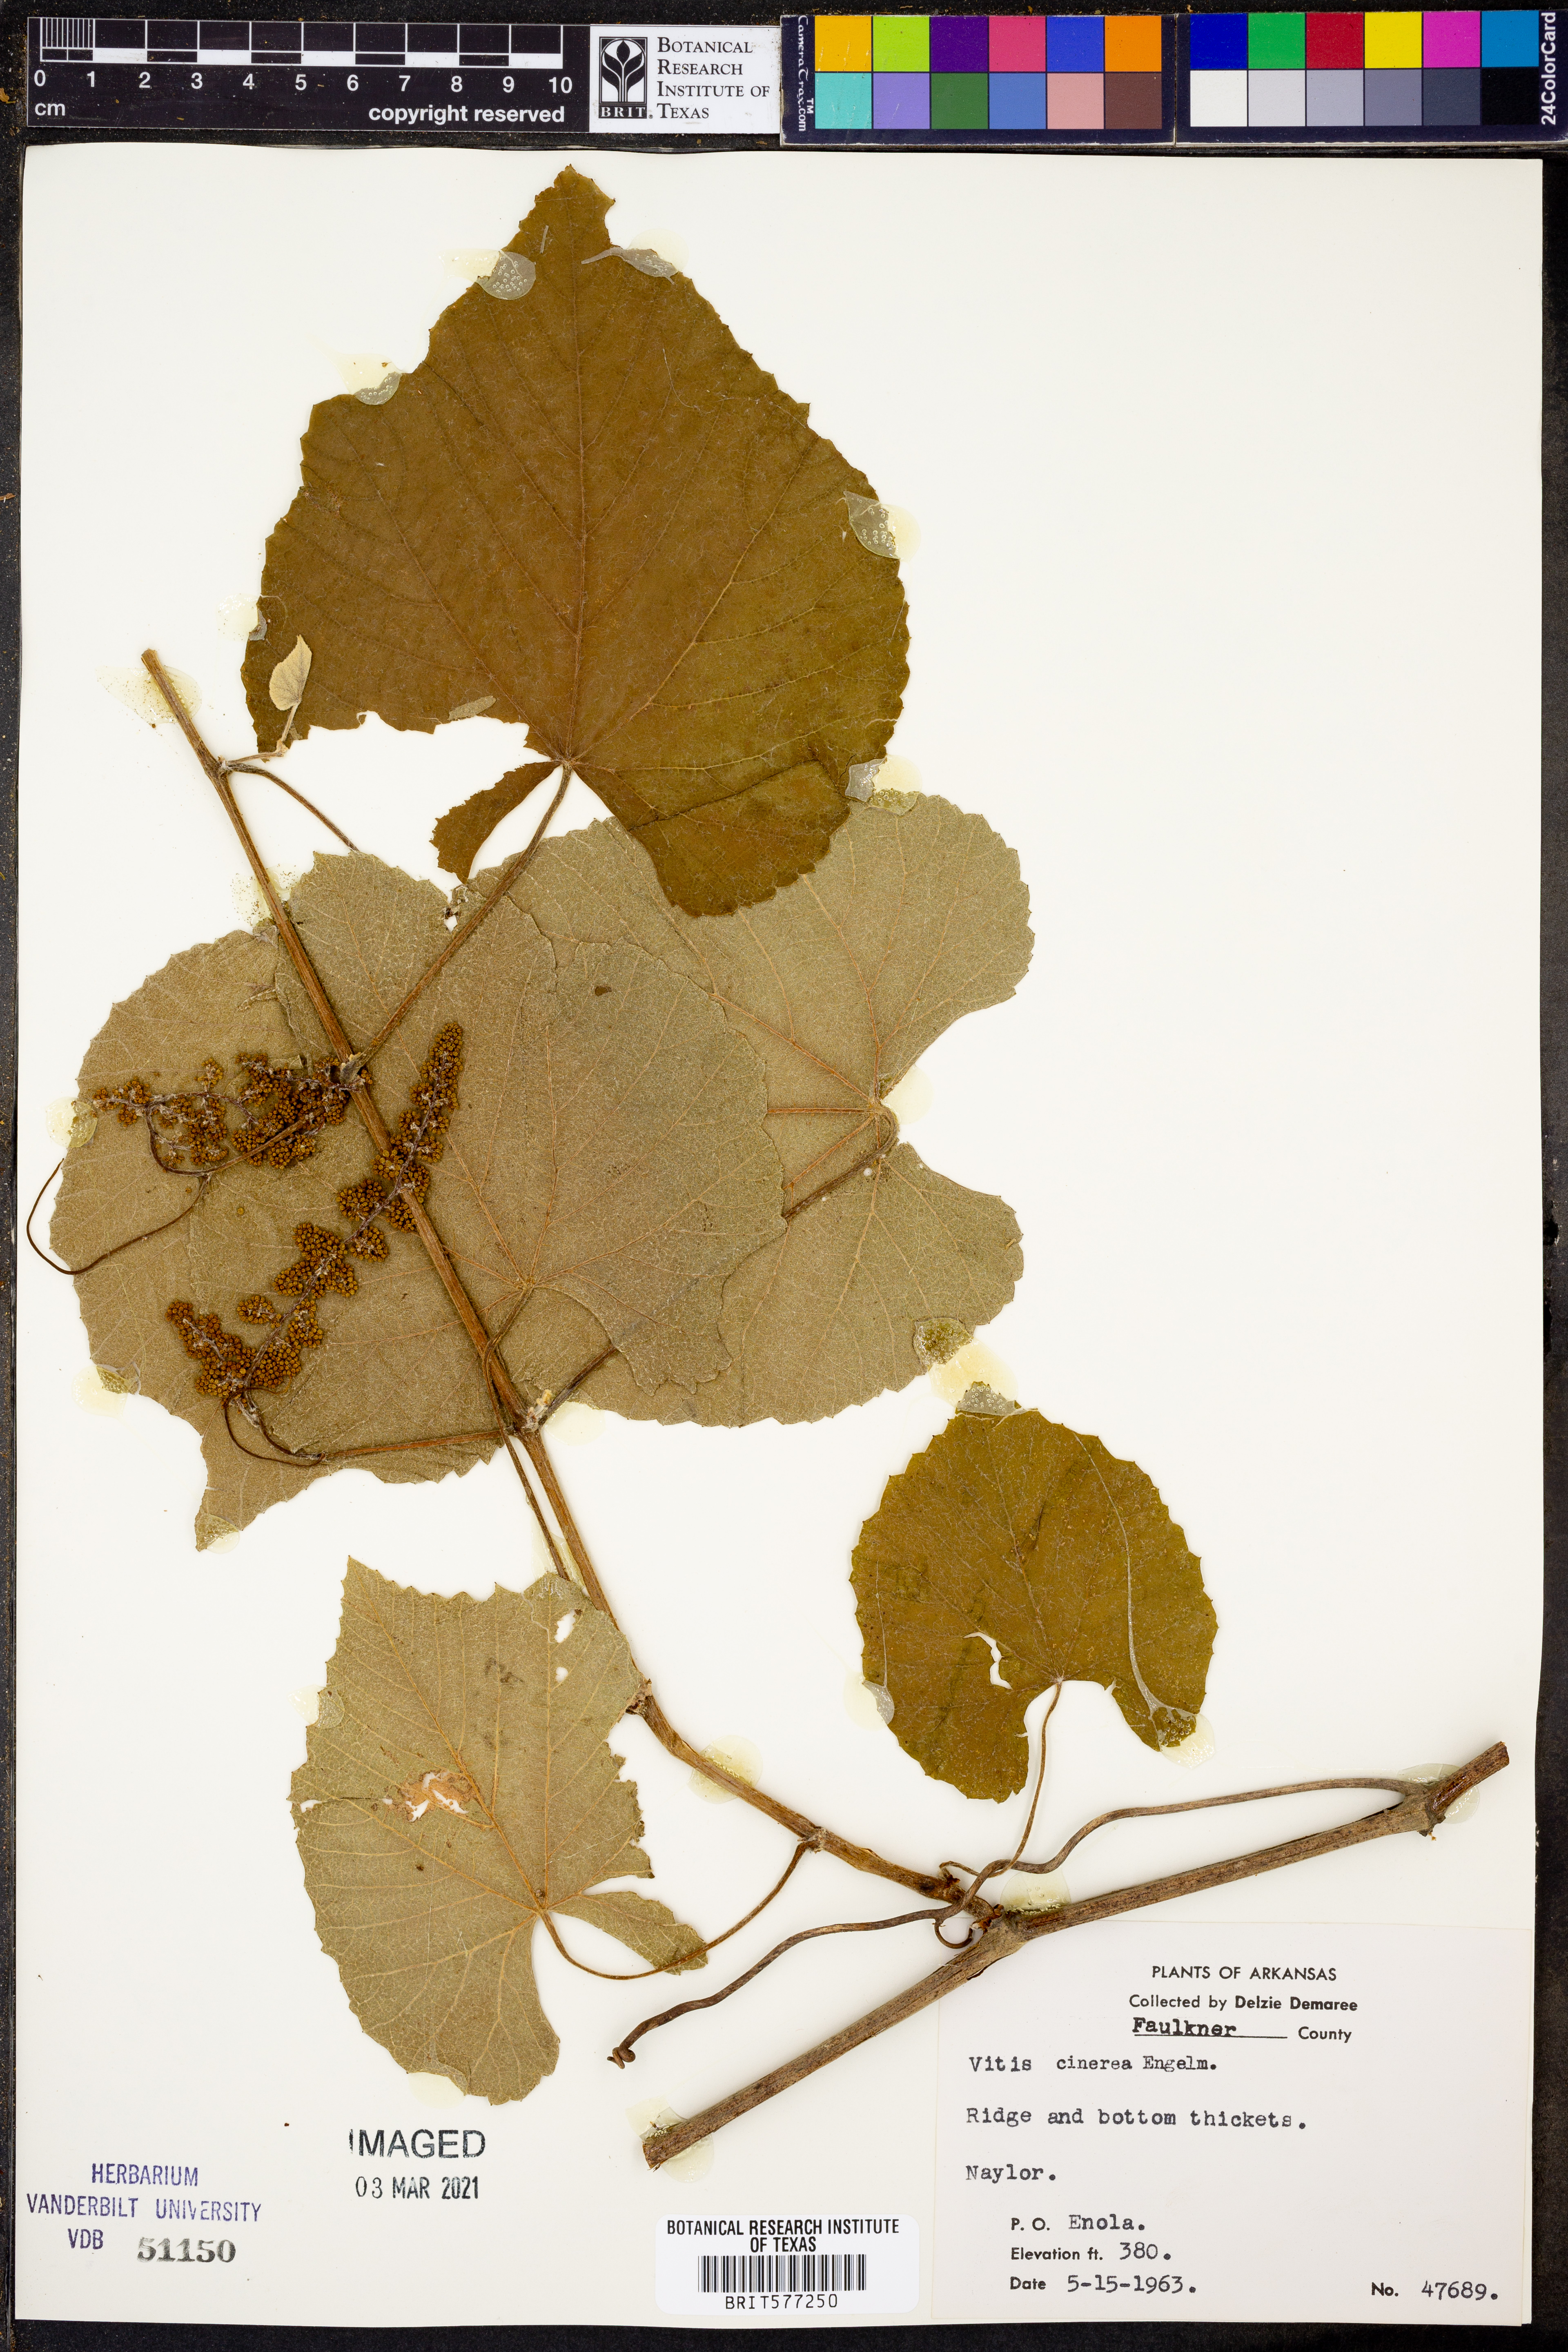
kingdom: Plantae
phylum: Tracheophyta
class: Magnoliopsida
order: Vitales
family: Vitaceae
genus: Vitis
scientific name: Vitis cinerea
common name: Ashy grape
